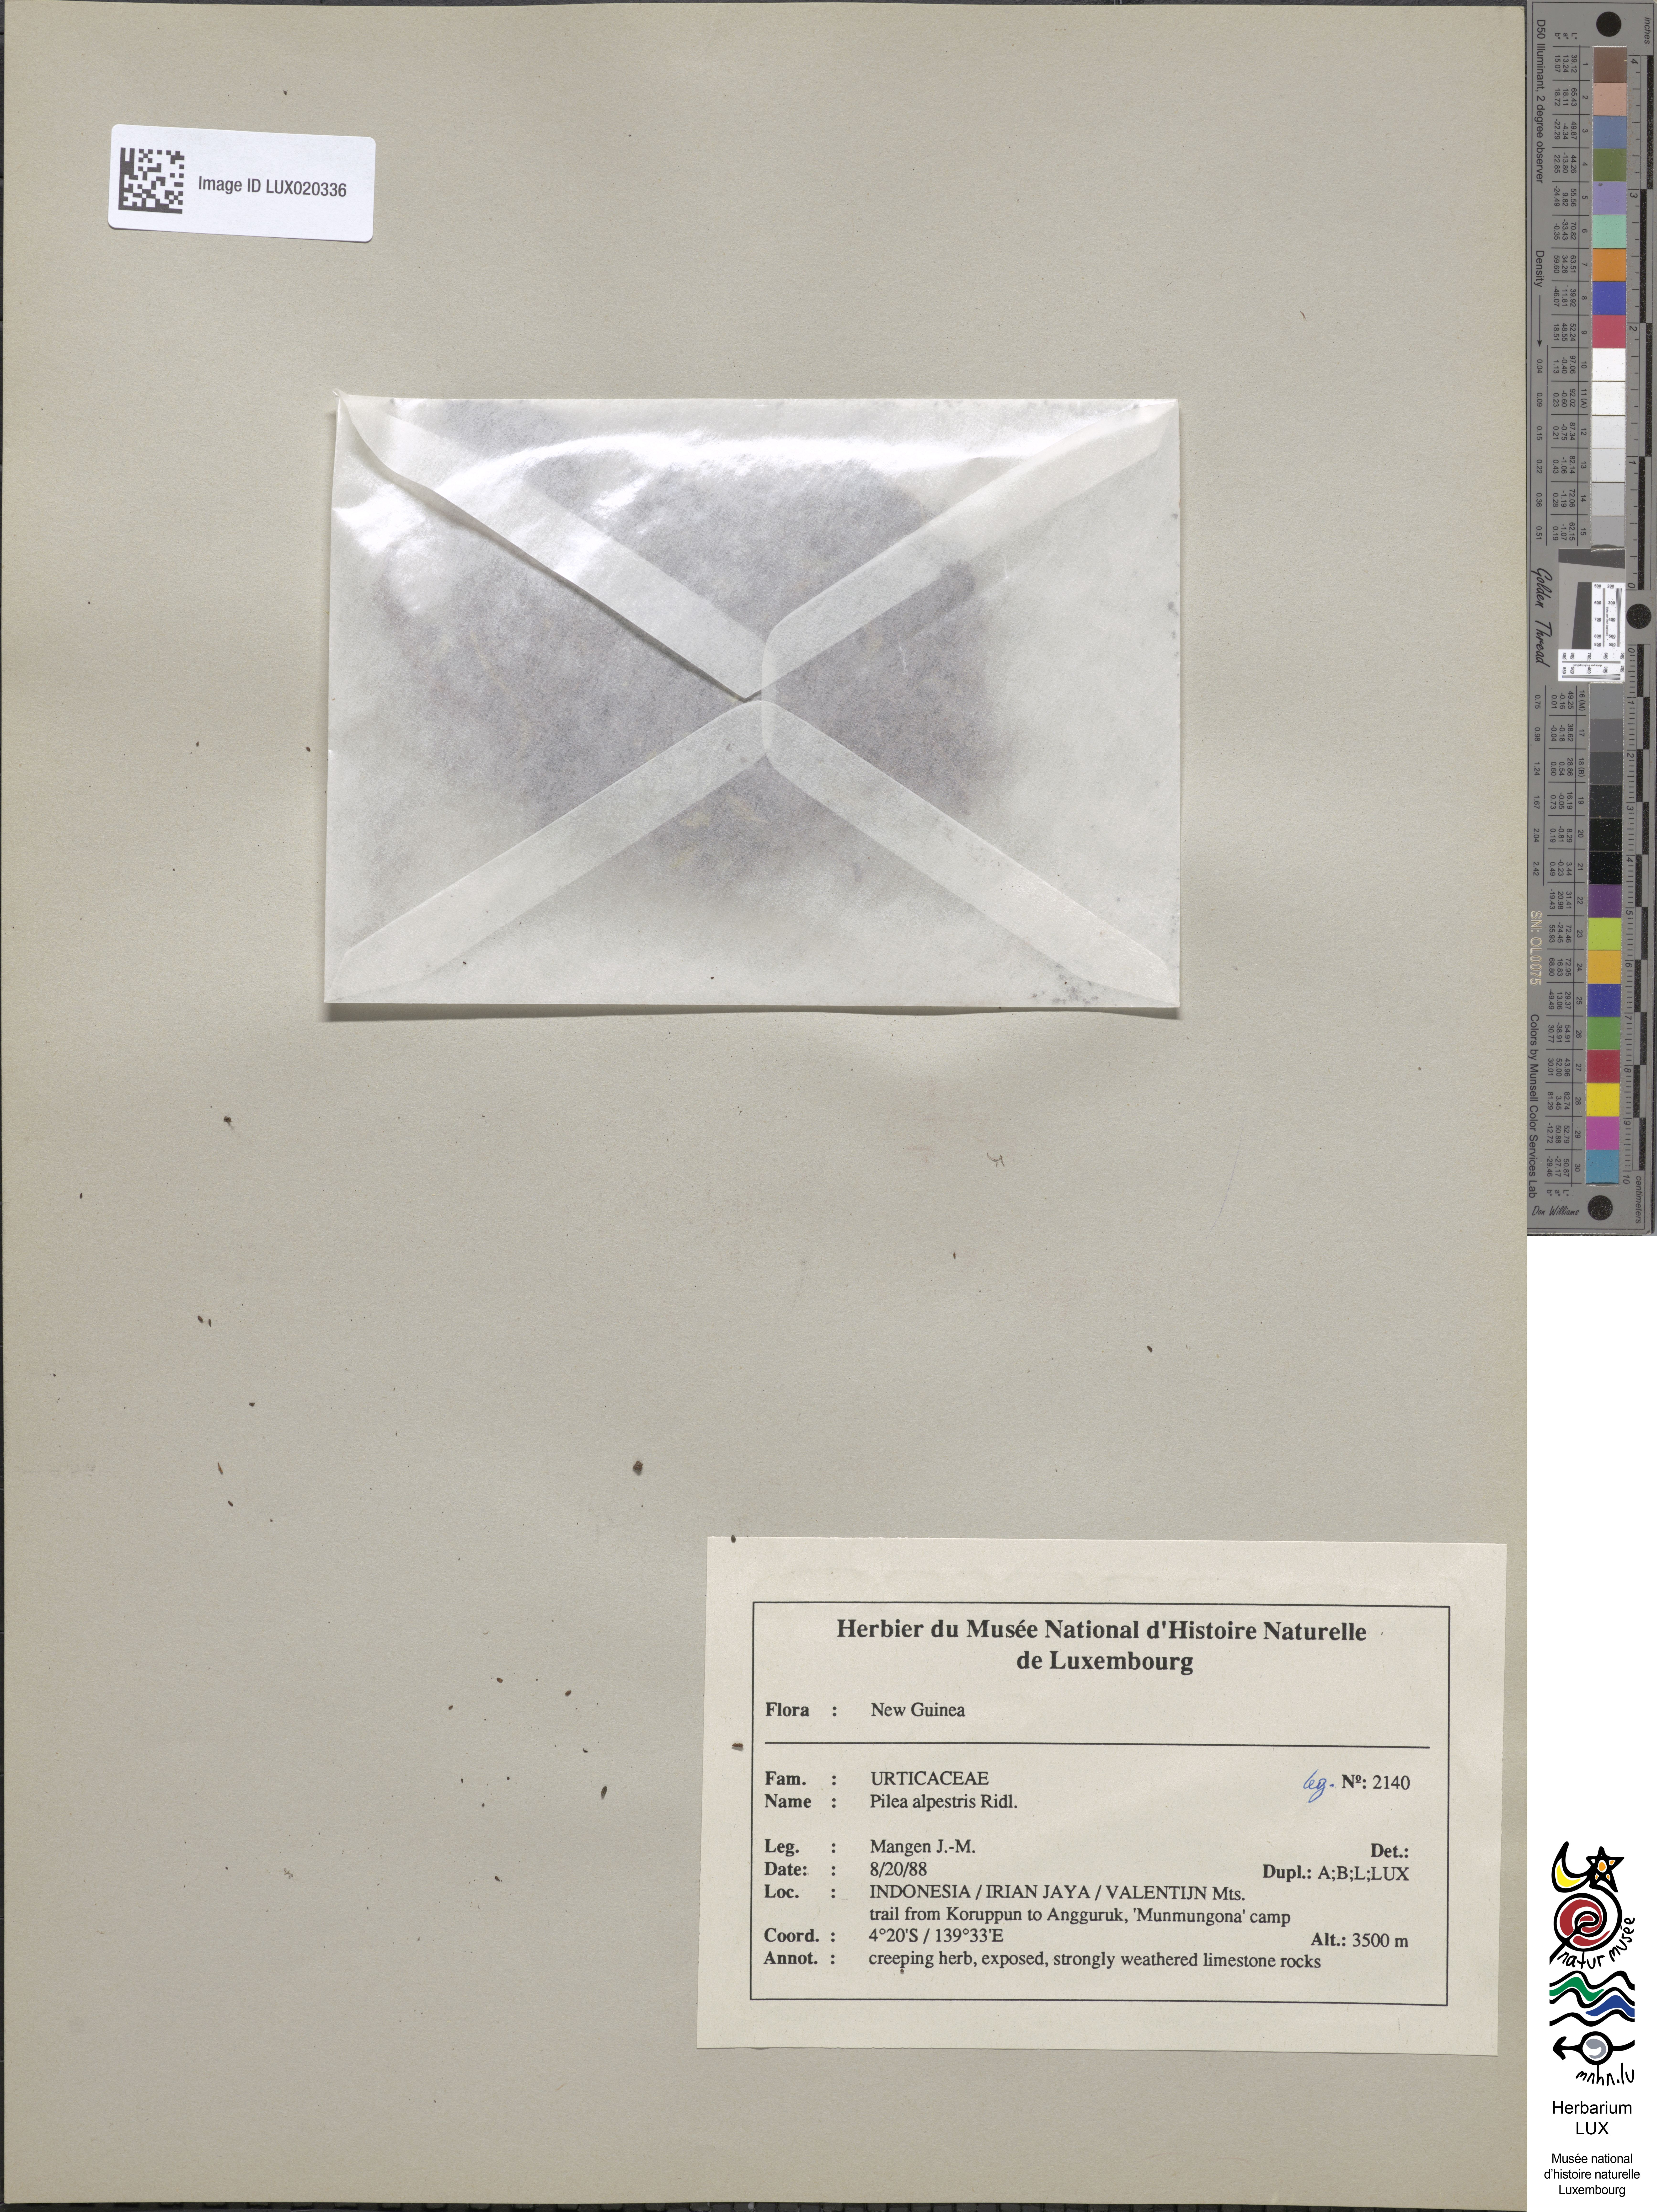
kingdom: Plantae
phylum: Tracheophyta
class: Magnoliopsida
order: Rosales
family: Urticaceae
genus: Pilea
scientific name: Pilea lapestris
